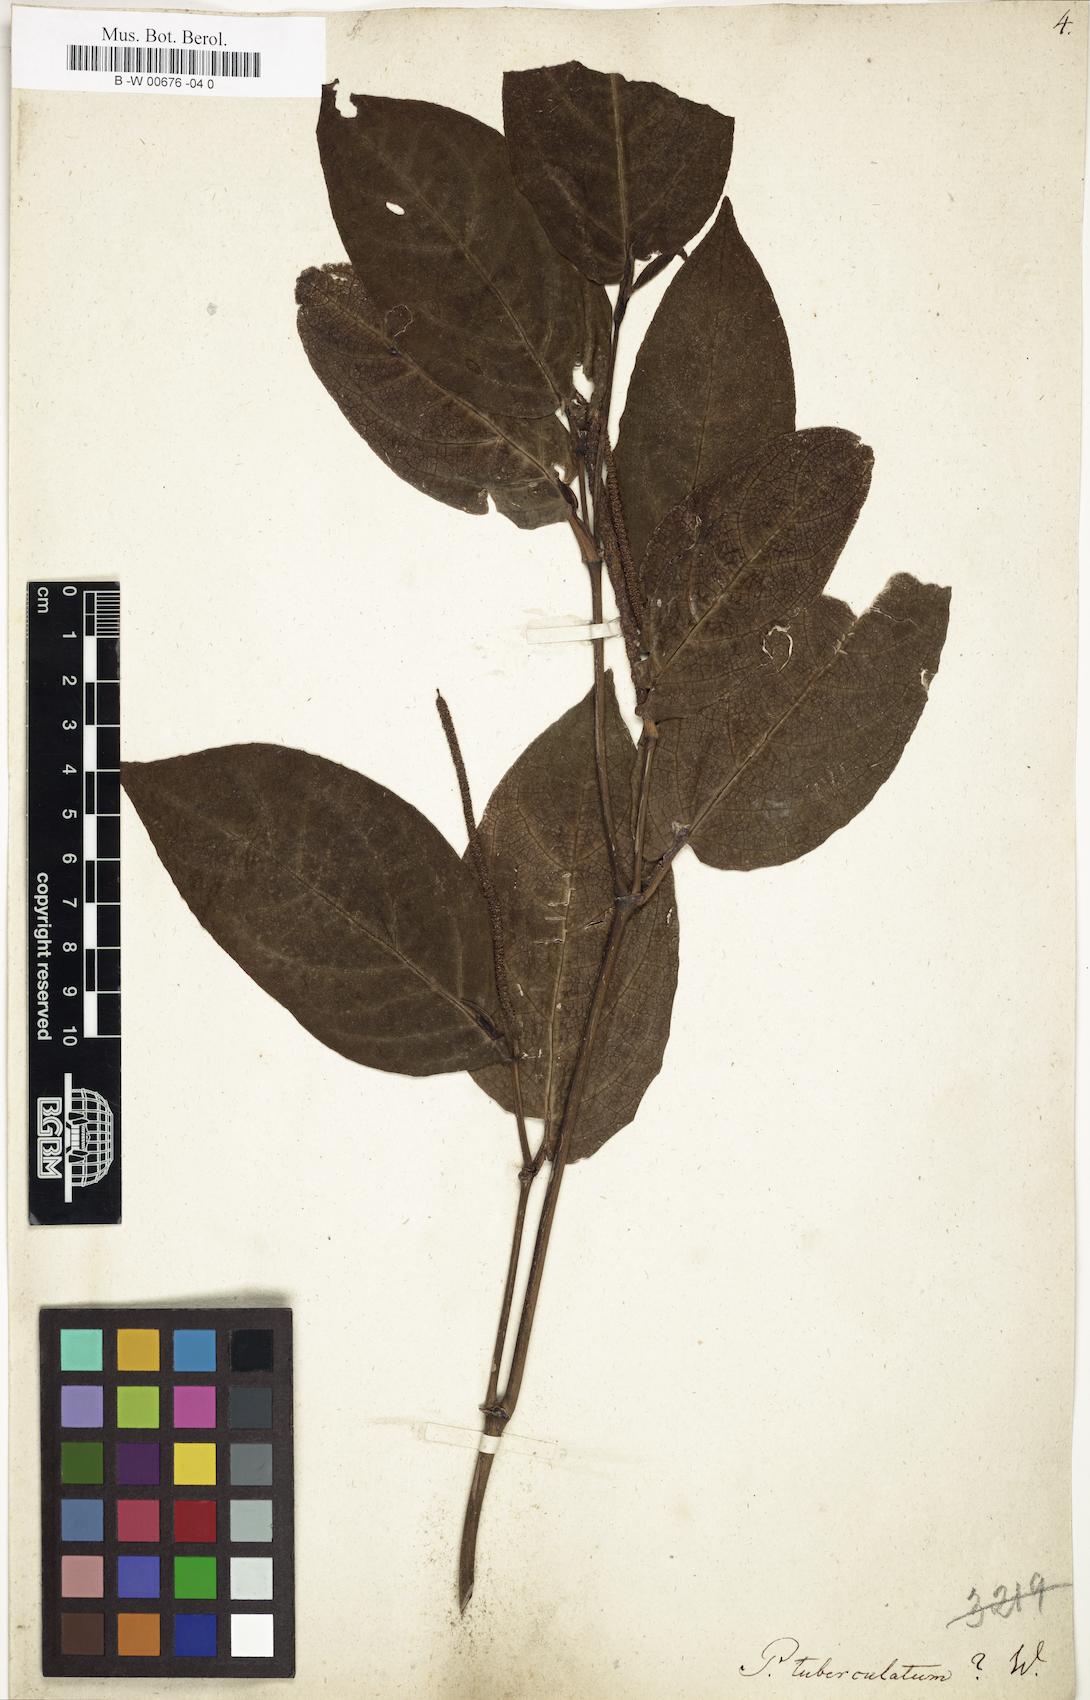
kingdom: Plantae
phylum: Tracheophyta
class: Magnoliopsida
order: Piperales
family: Piperaceae
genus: Piper
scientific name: Piper tuberculatum
